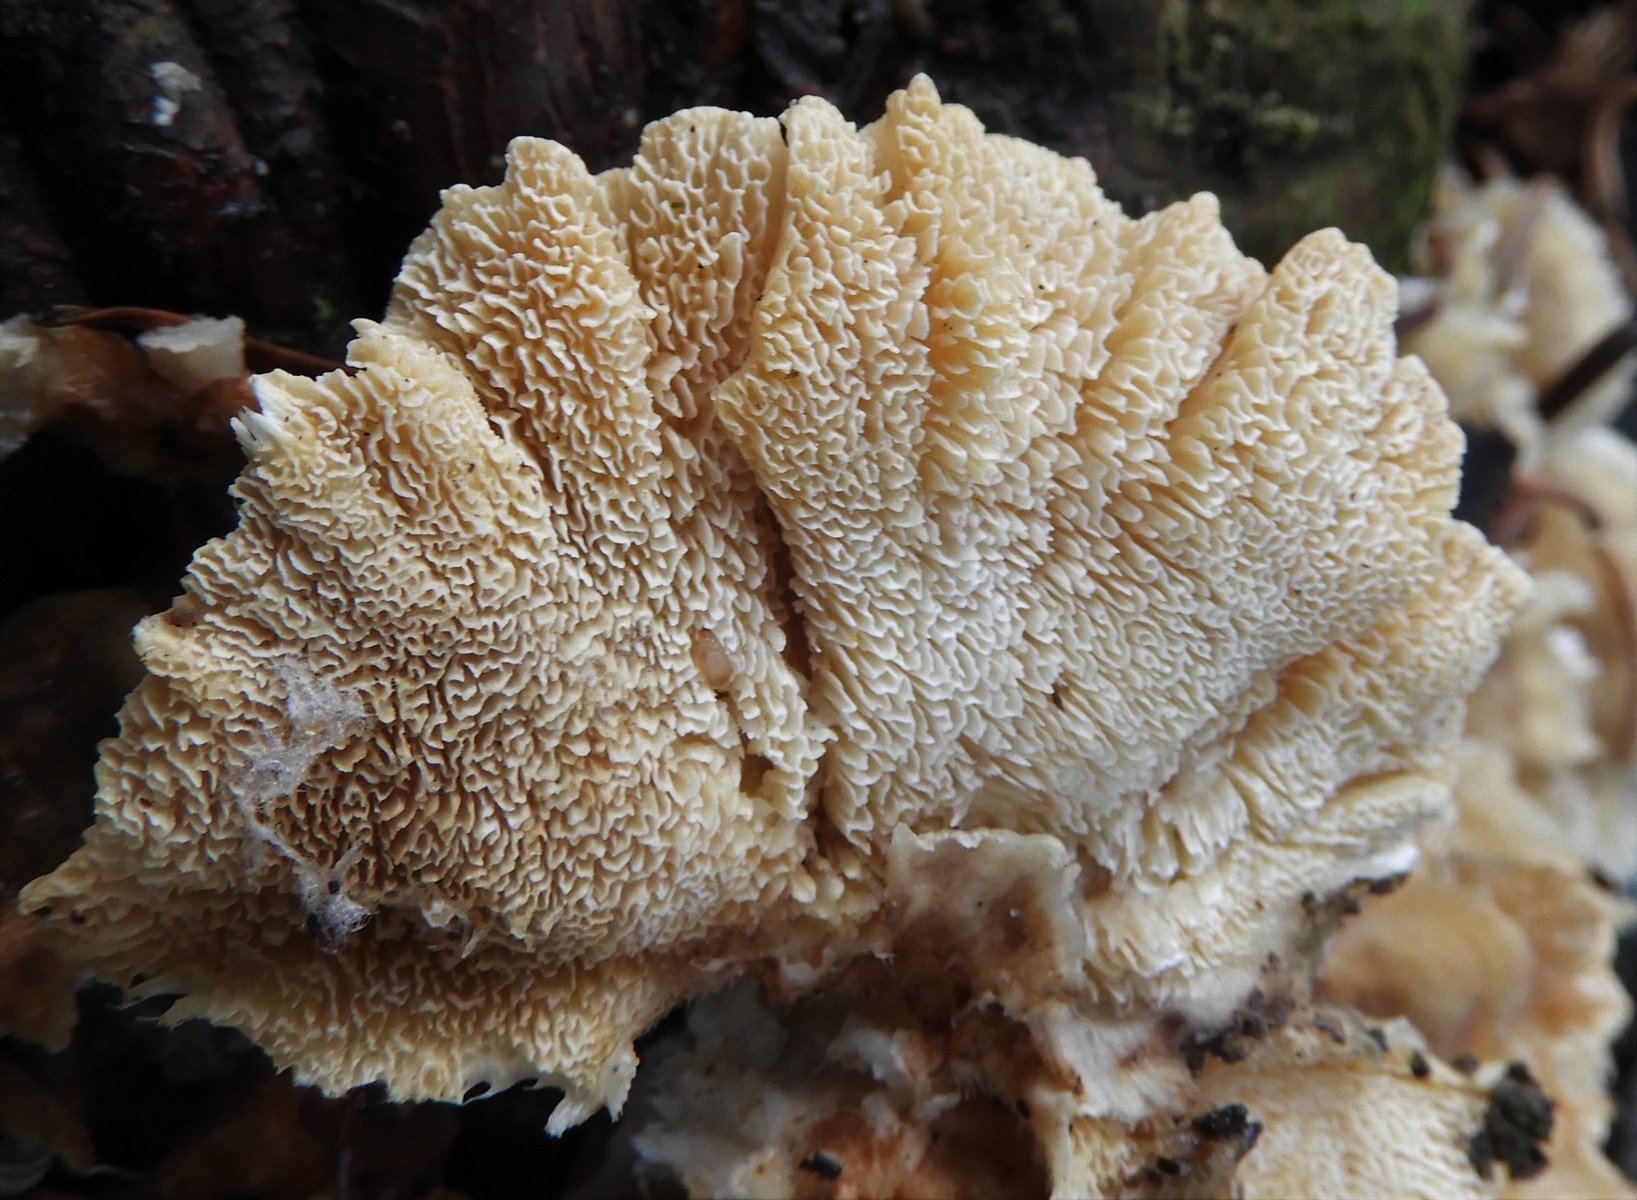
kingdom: Fungi
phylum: Basidiomycota
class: Agaricomycetes
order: Polyporales
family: Polyporaceae
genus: Trametes
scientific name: Trametes versicolor
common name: broget læderporesvamp
